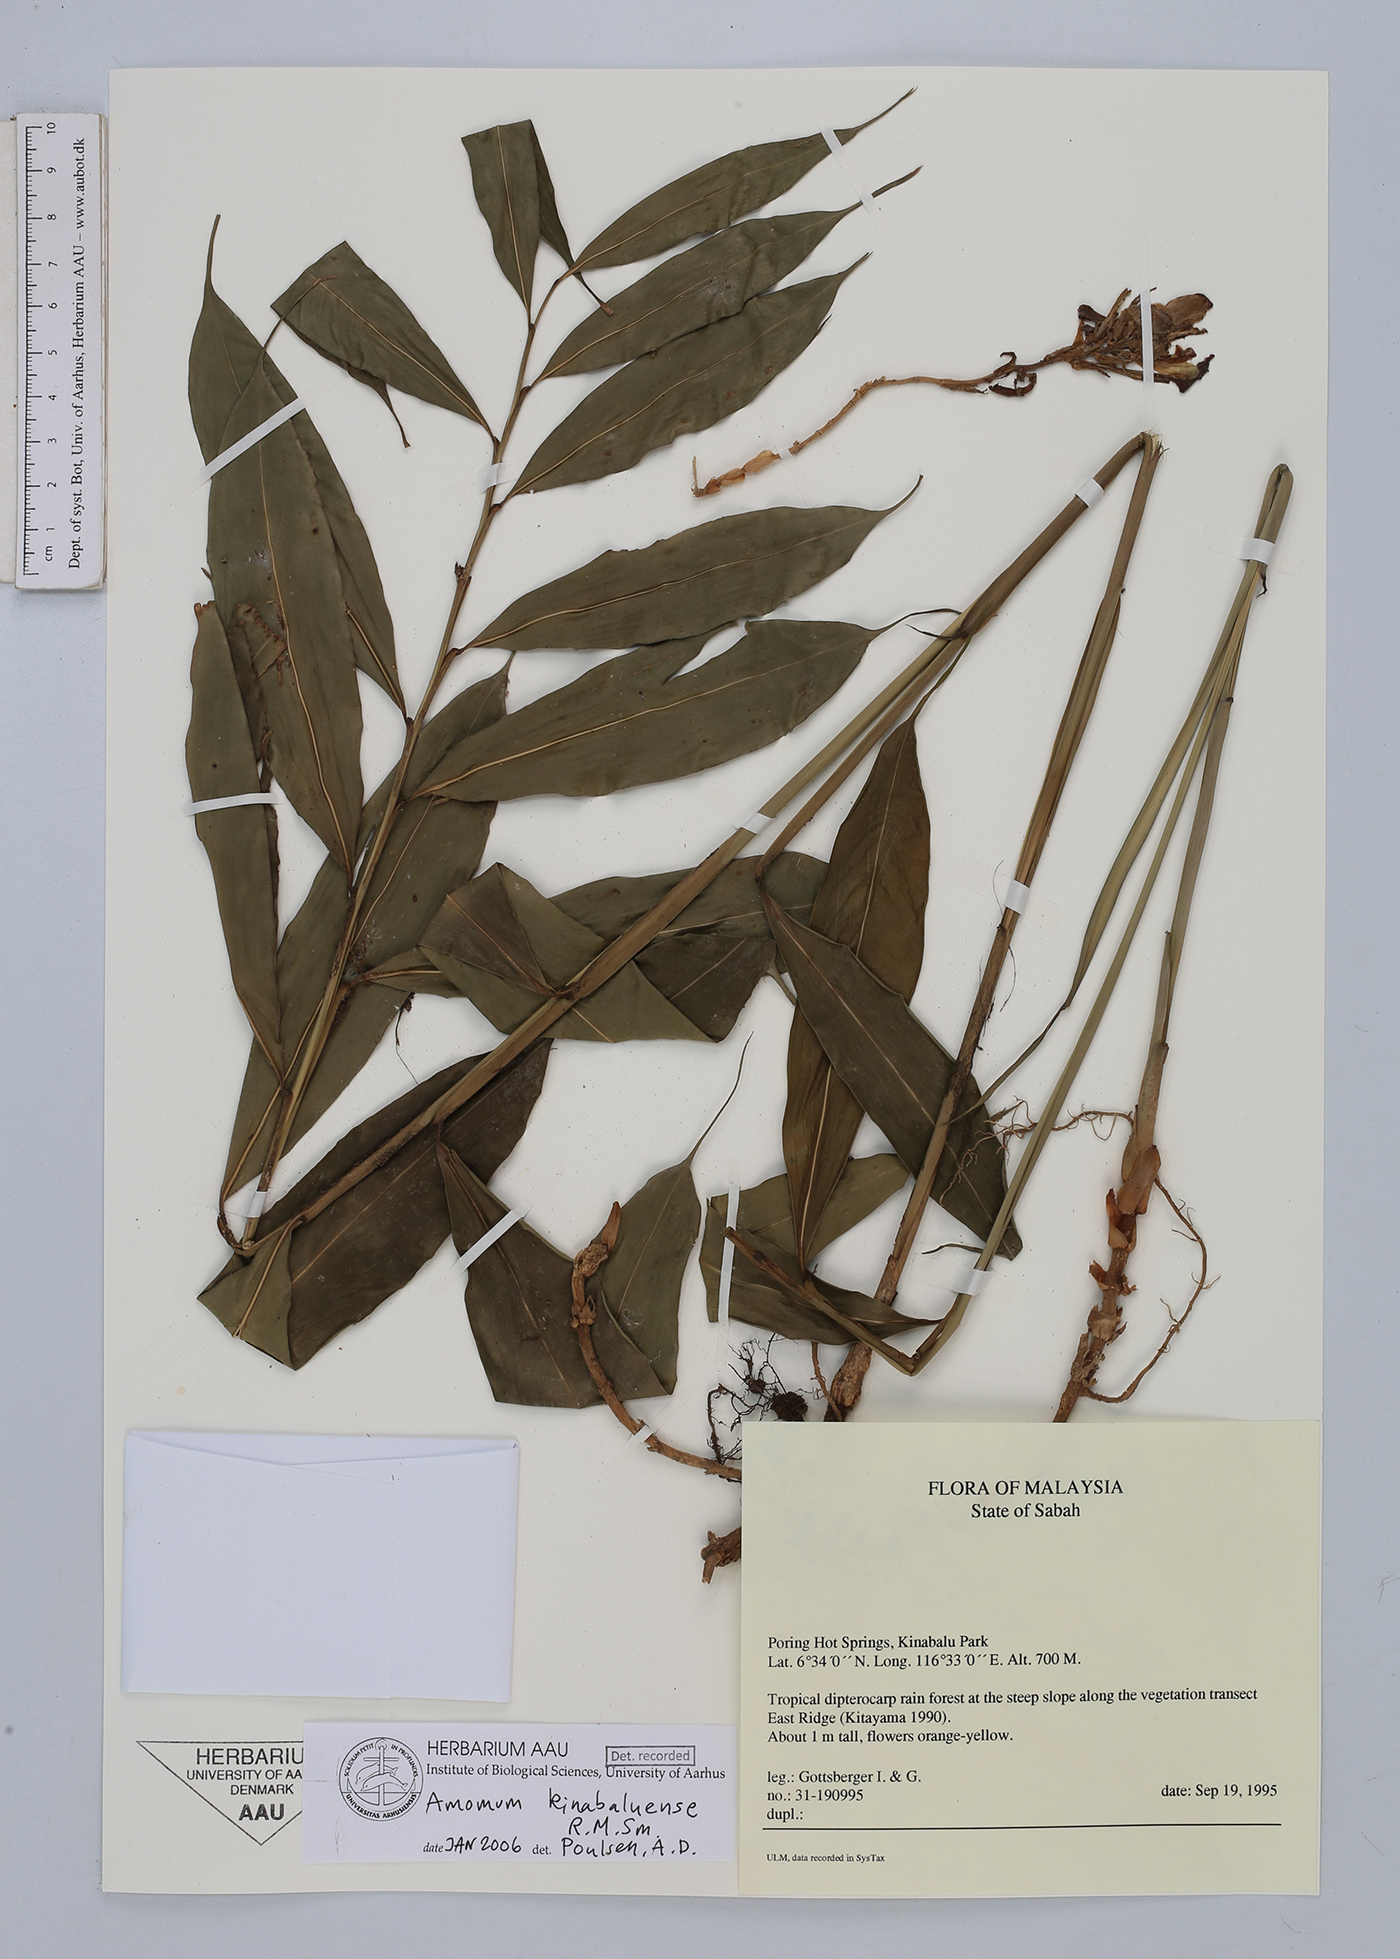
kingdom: Plantae
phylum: Tracheophyta
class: Liliopsida
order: Zingiberales
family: Zingiberaceae
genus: Meistera
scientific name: Meistera kinabaluensis
